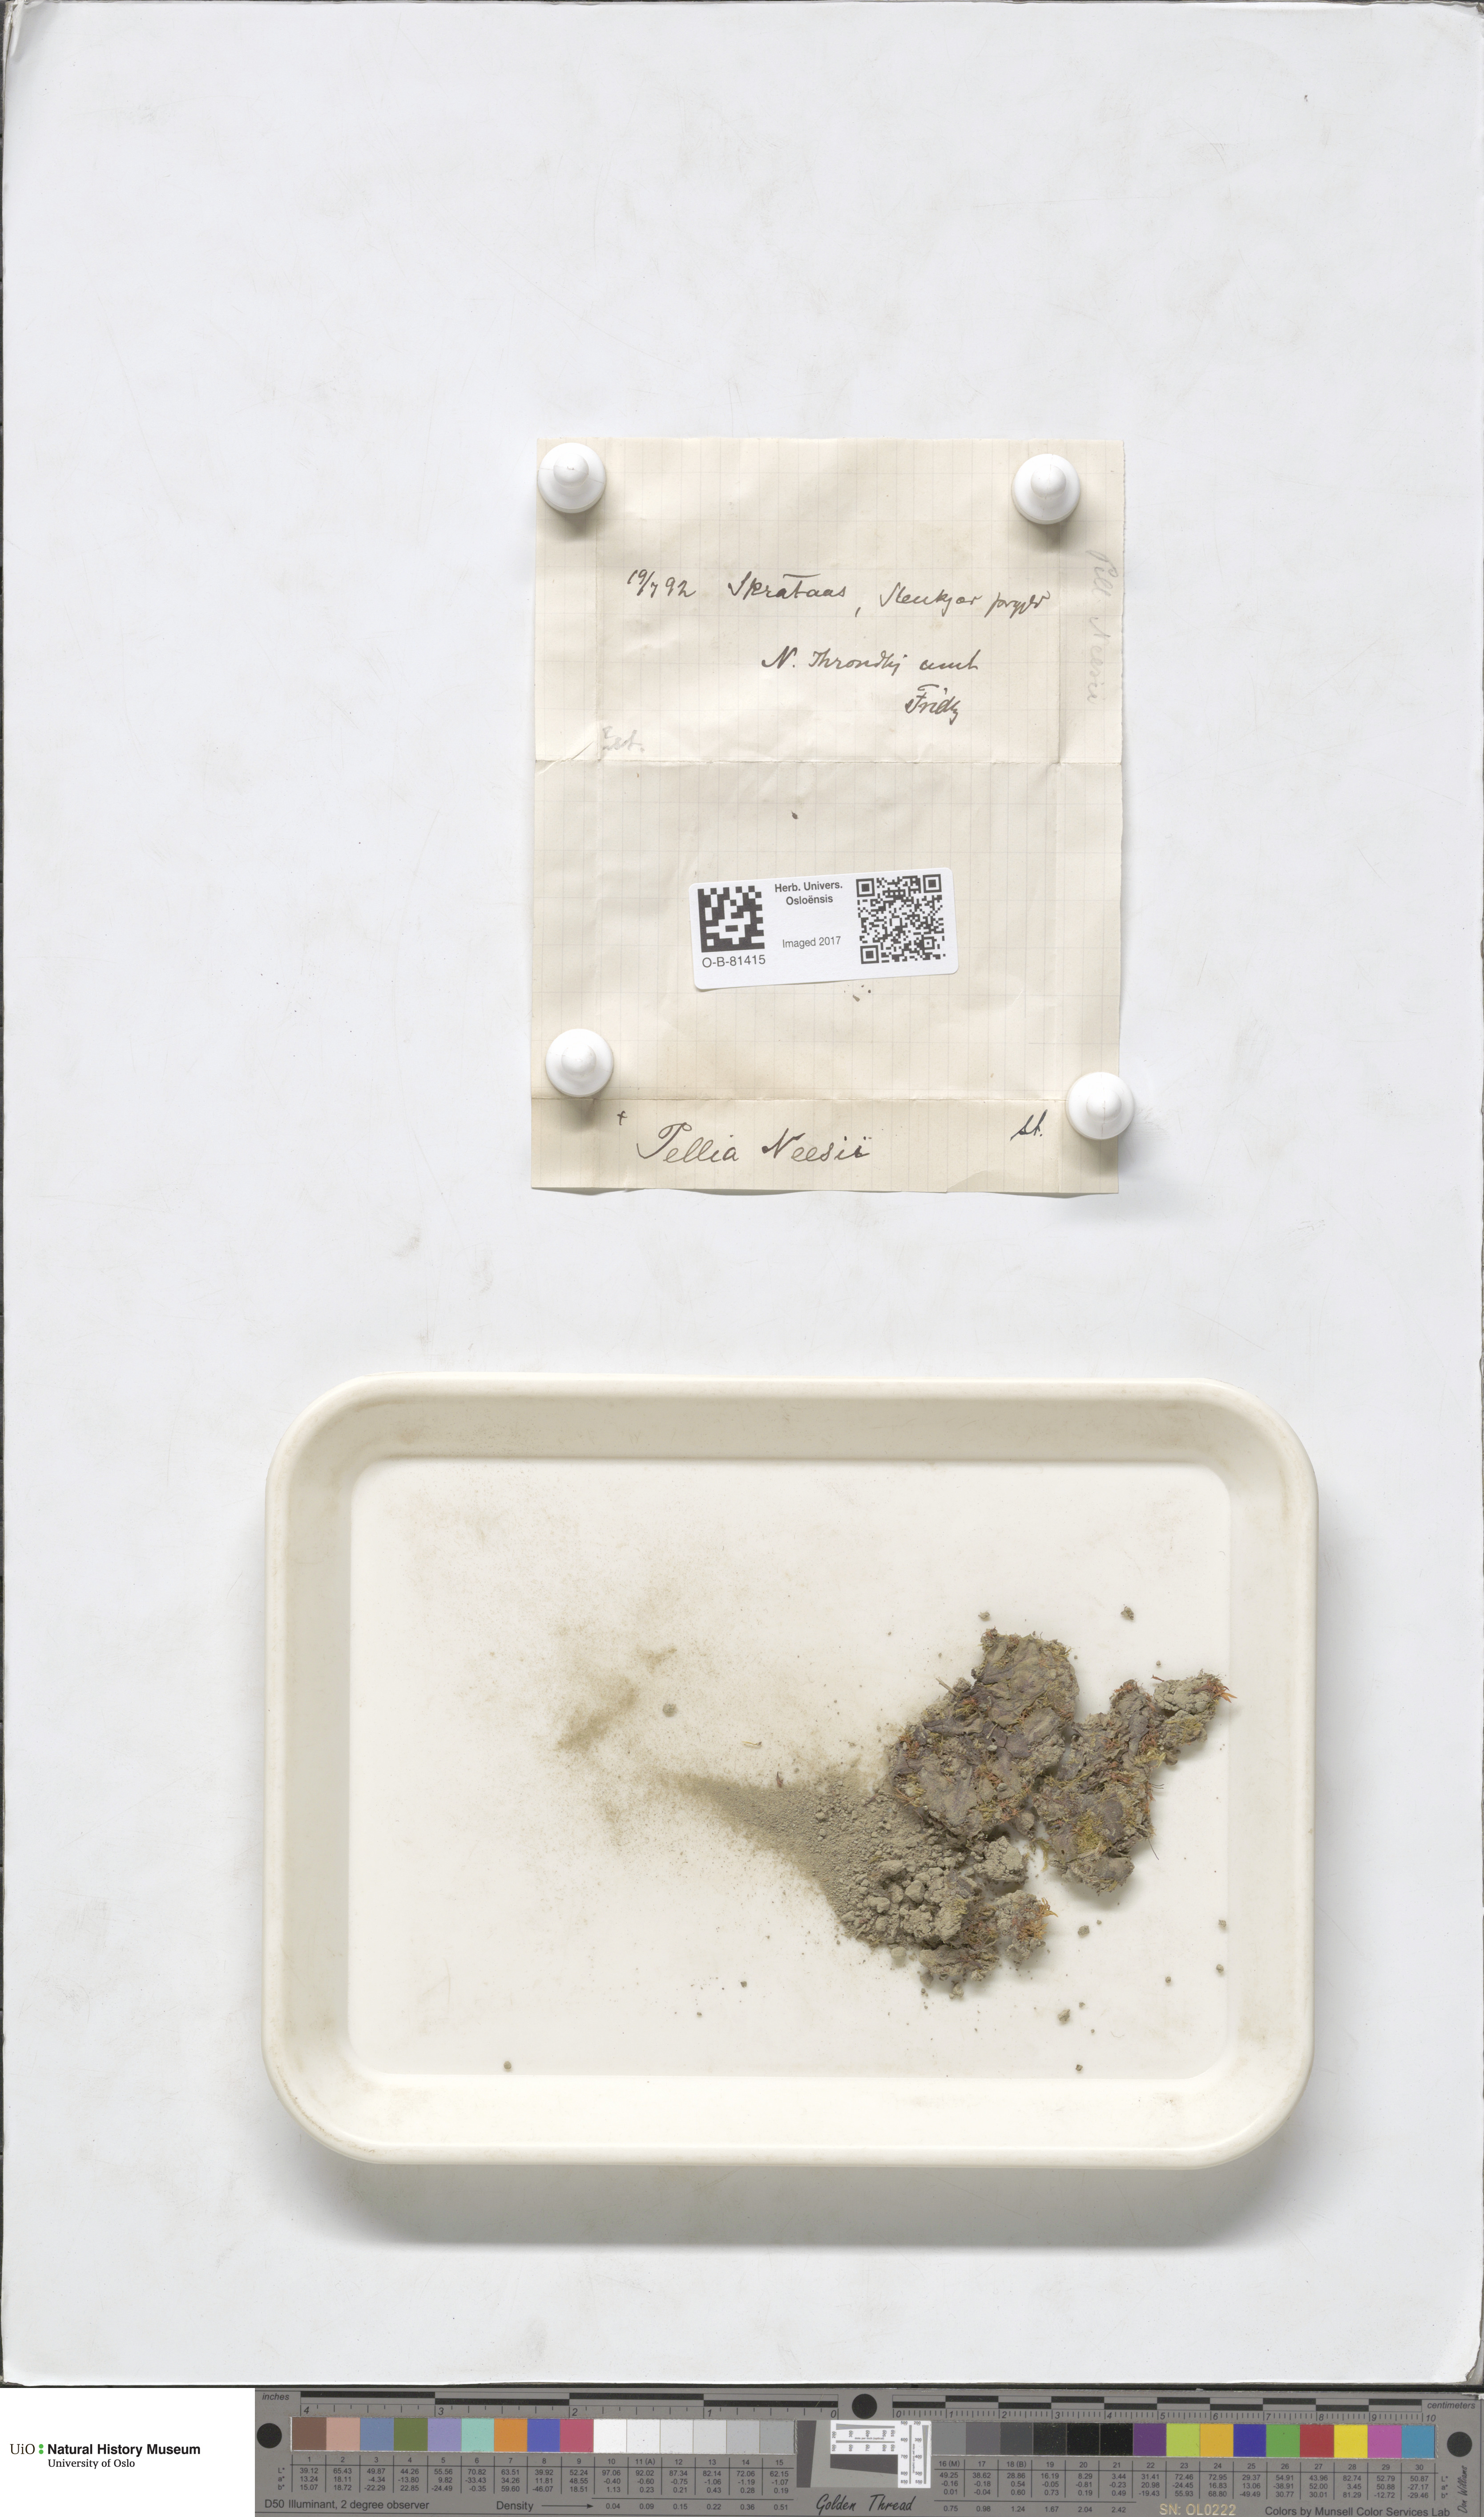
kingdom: Plantae
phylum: Marchantiophyta
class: Jungermanniopsida
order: Pelliales
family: Pelliaceae
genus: Pellia
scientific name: Pellia neesiana
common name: Nees  pellia
